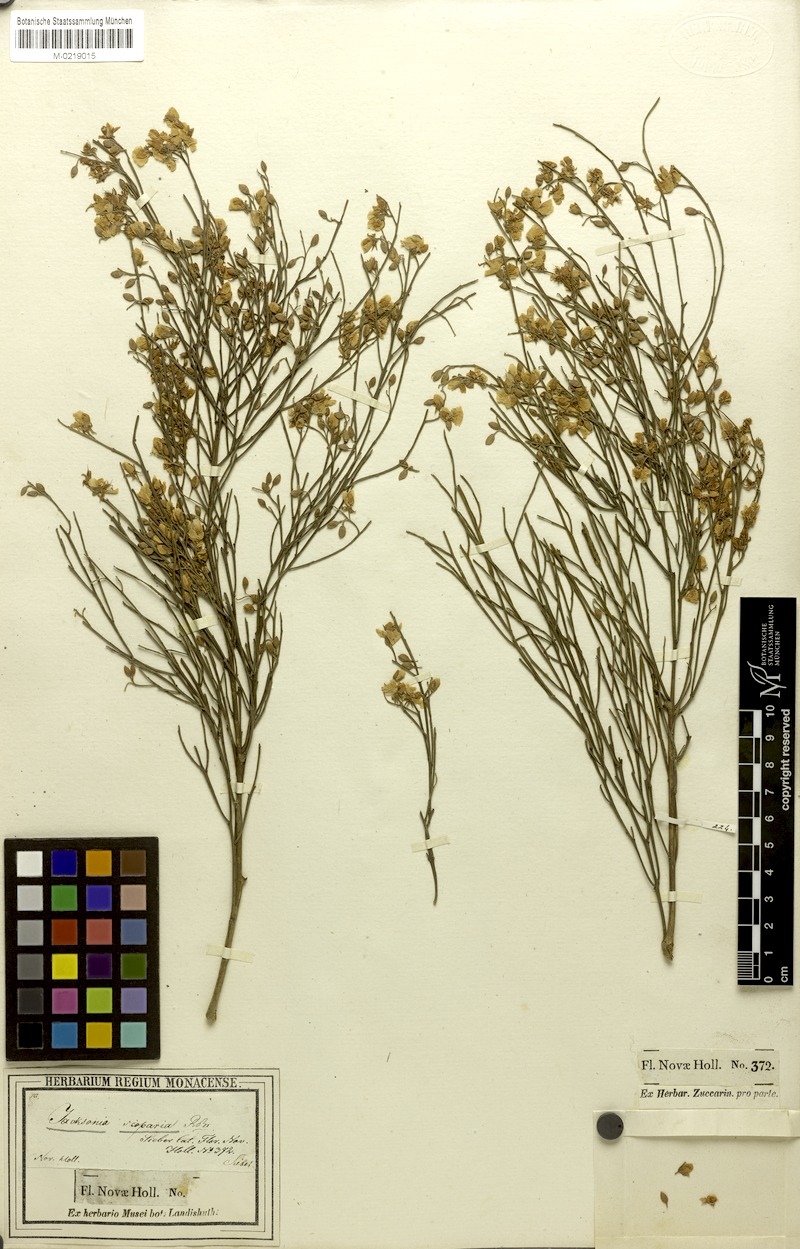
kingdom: Plantae
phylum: Tracheophyta
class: Magnoliopsida
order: Fabales
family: Fabaceae
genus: Jacksonia
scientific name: Jacksonia scoparia
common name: Dogwood
